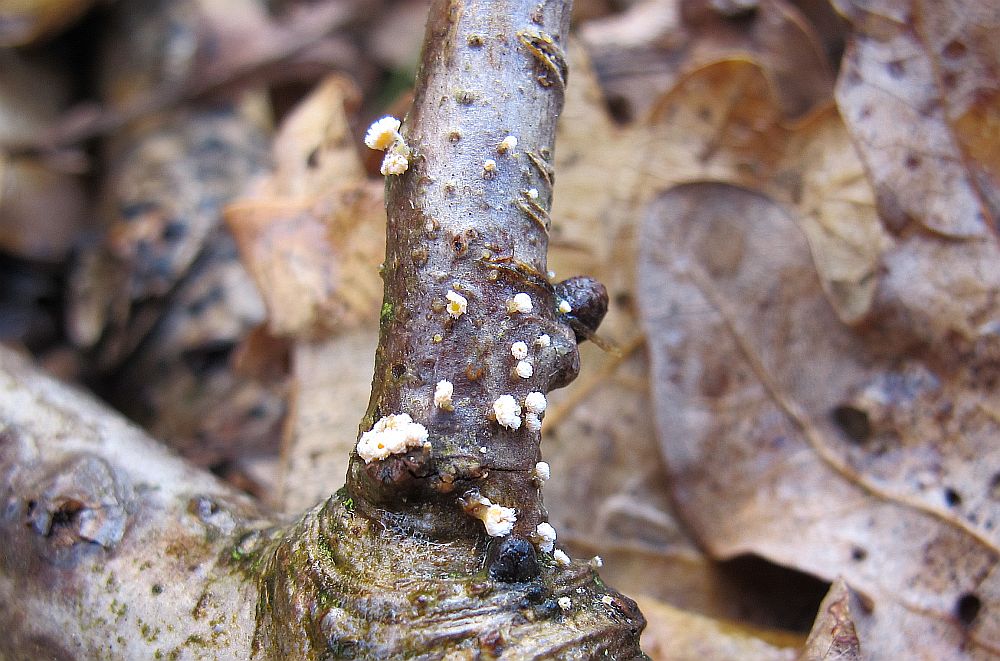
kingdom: Fungi
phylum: Ascomycota
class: Leotiomycetes
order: Helotiales
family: Lachnaceae
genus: Capitotricha
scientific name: Capitotricha bicolor
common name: prægtig frynseskive
